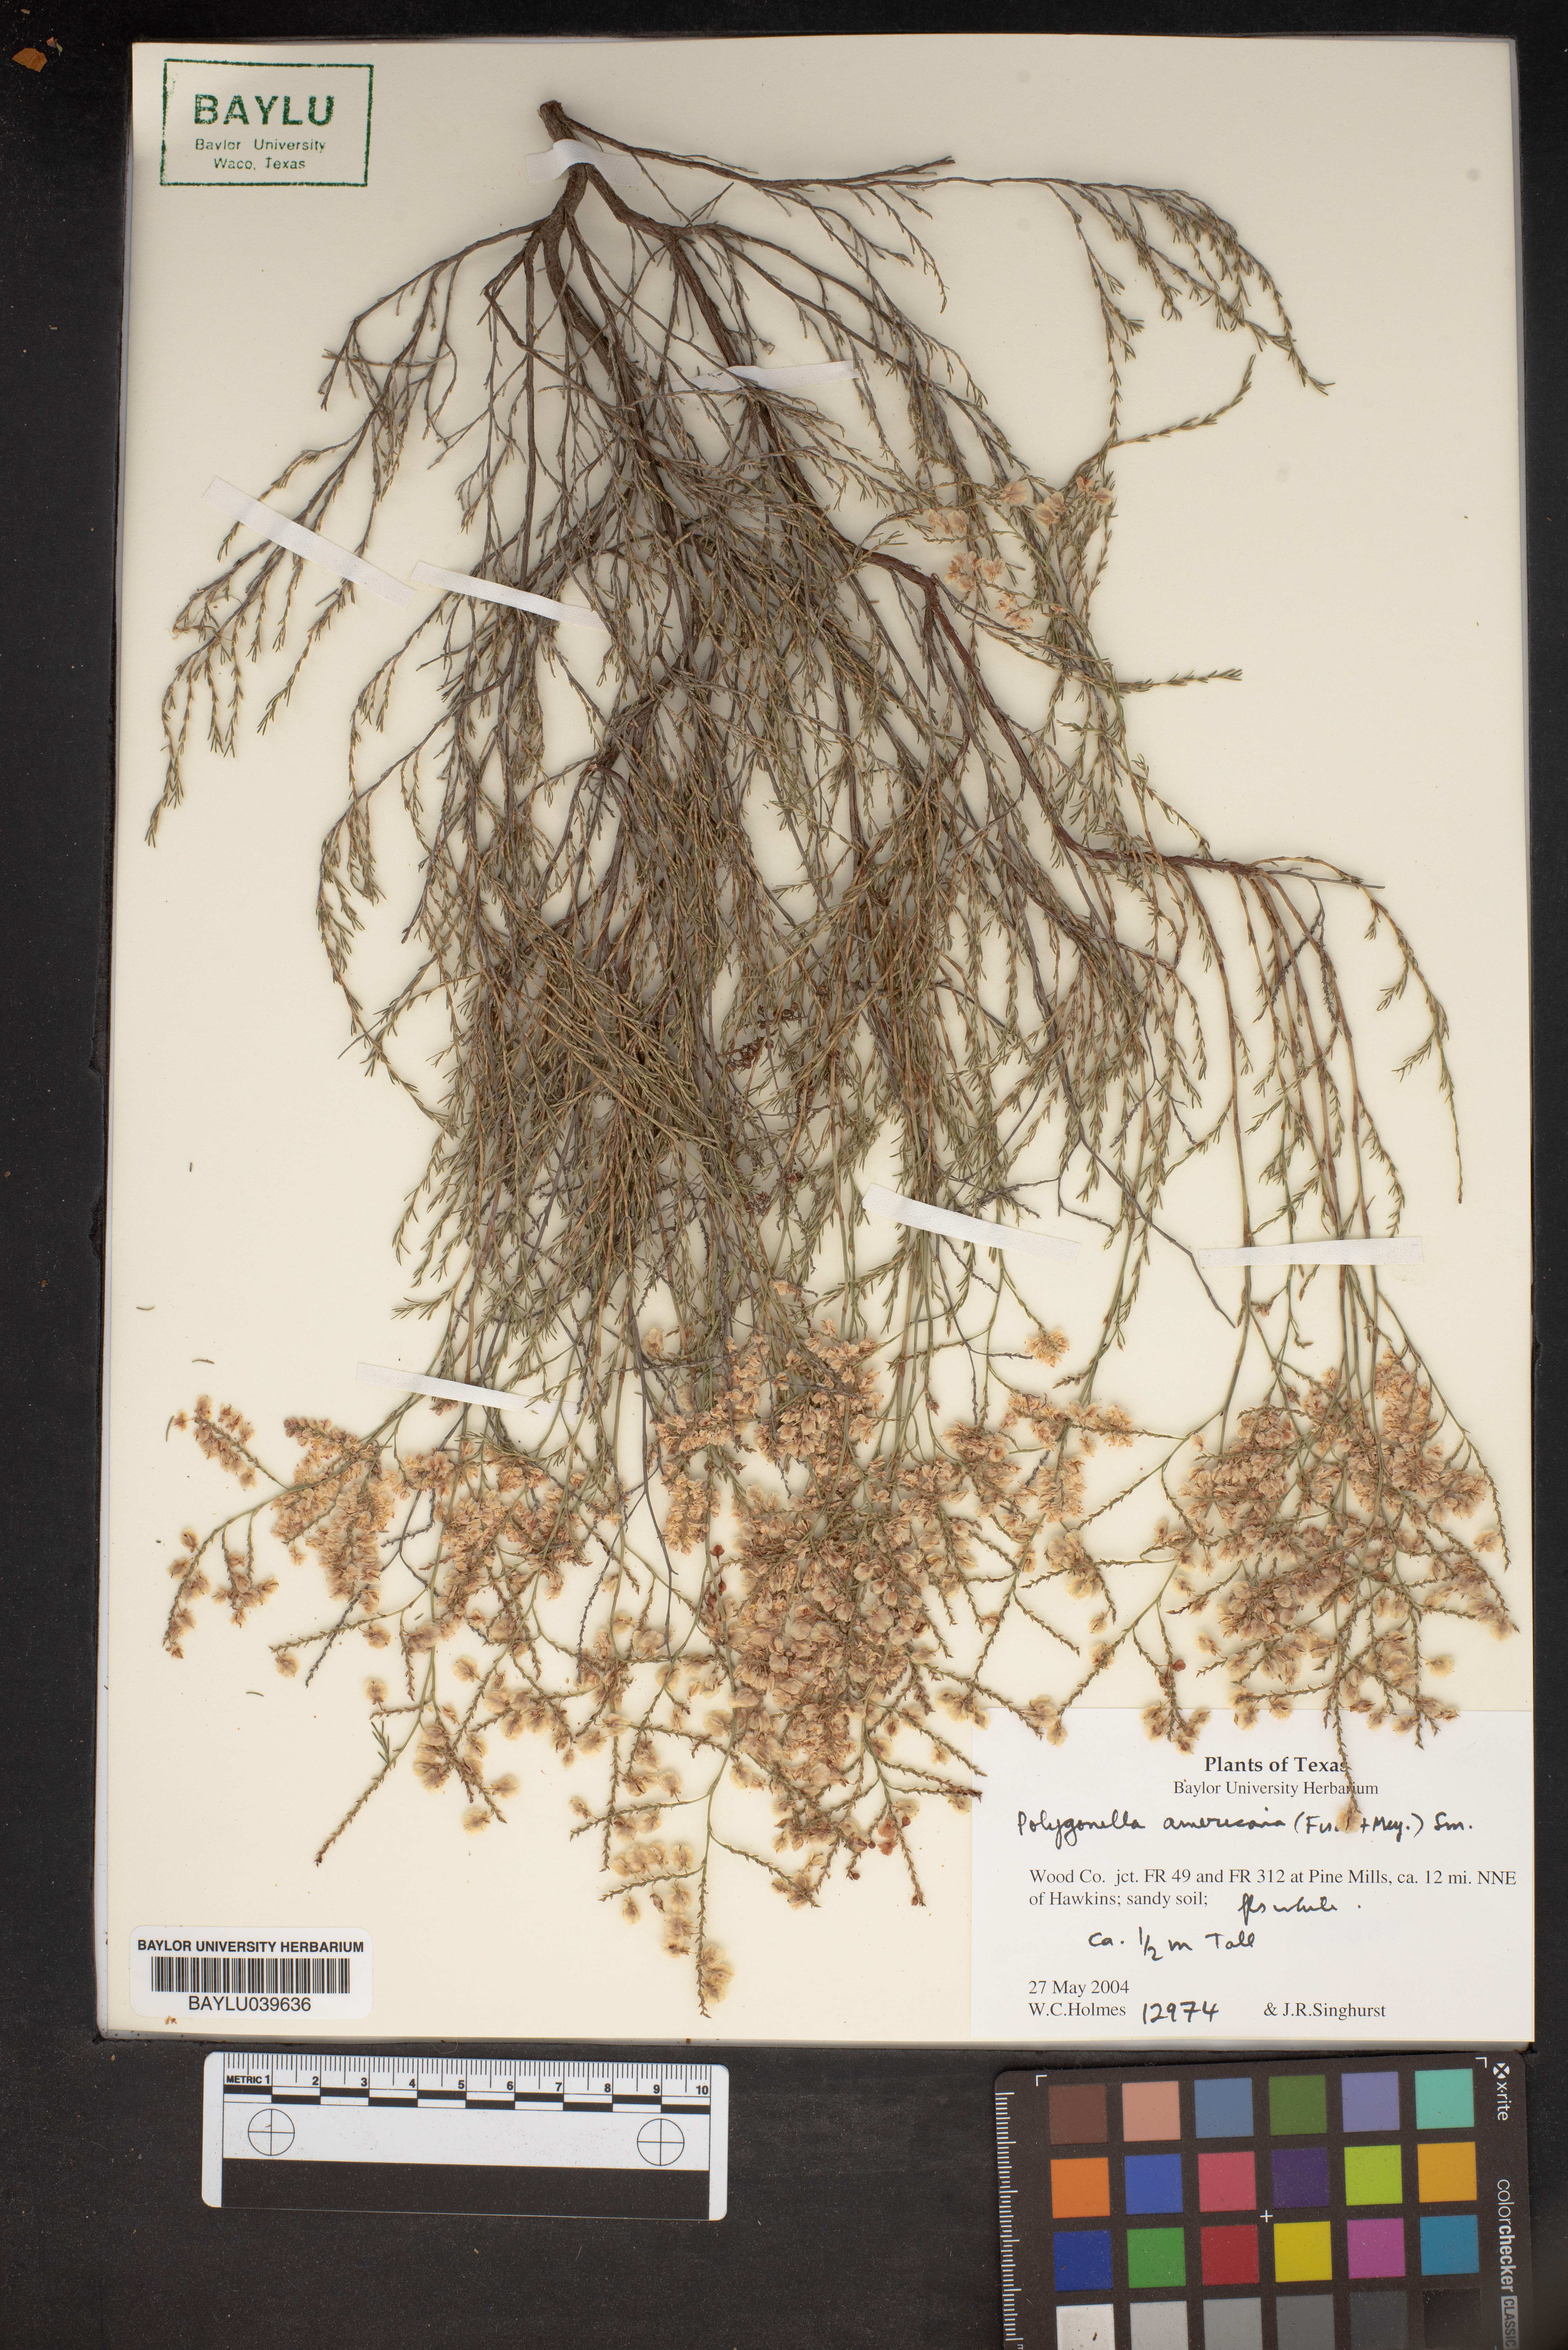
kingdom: Plantae
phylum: Tracheophyta
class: Magnoliopsida
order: Caryophyllales
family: Polygonaceae
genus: Polygonella
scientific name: Polygonella americana
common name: Southern jointweed
